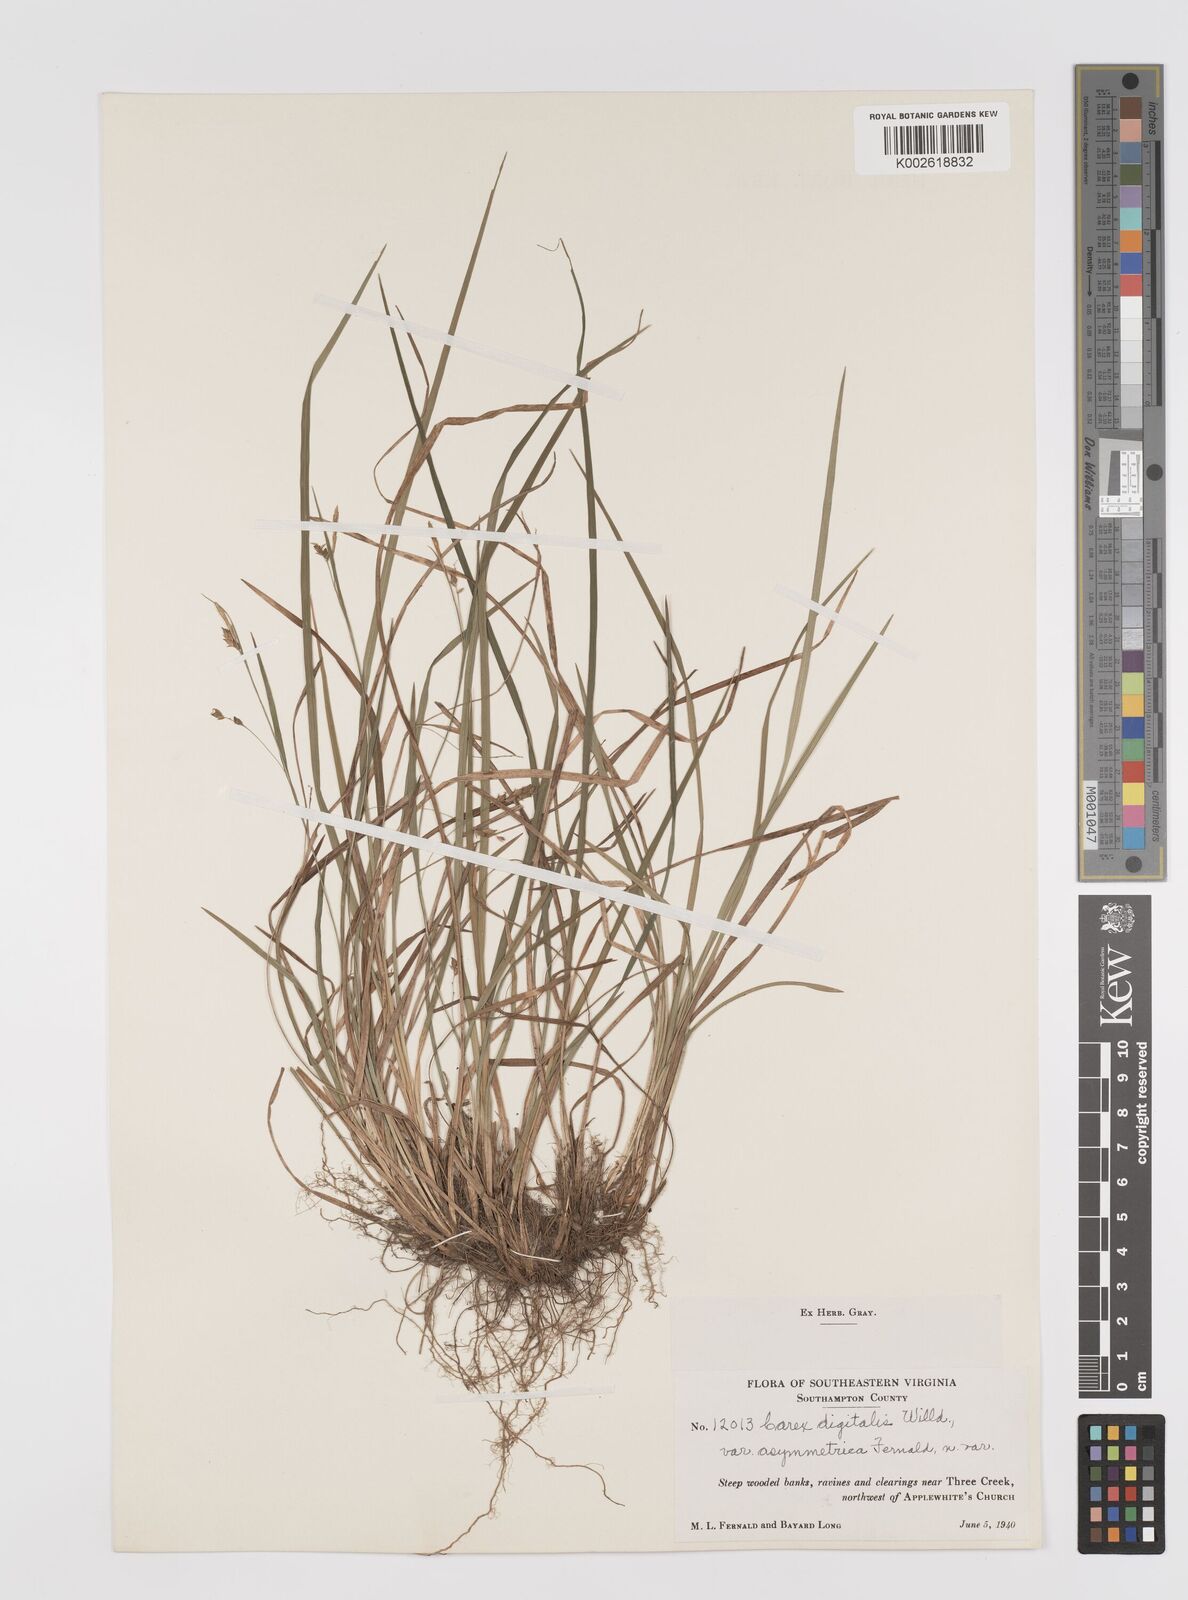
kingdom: Plantae
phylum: Tracheophyta
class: Liliopsida
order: Poales
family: Cyperaceae
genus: Carex
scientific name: Carex digitalis
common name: Slender wood sedge
